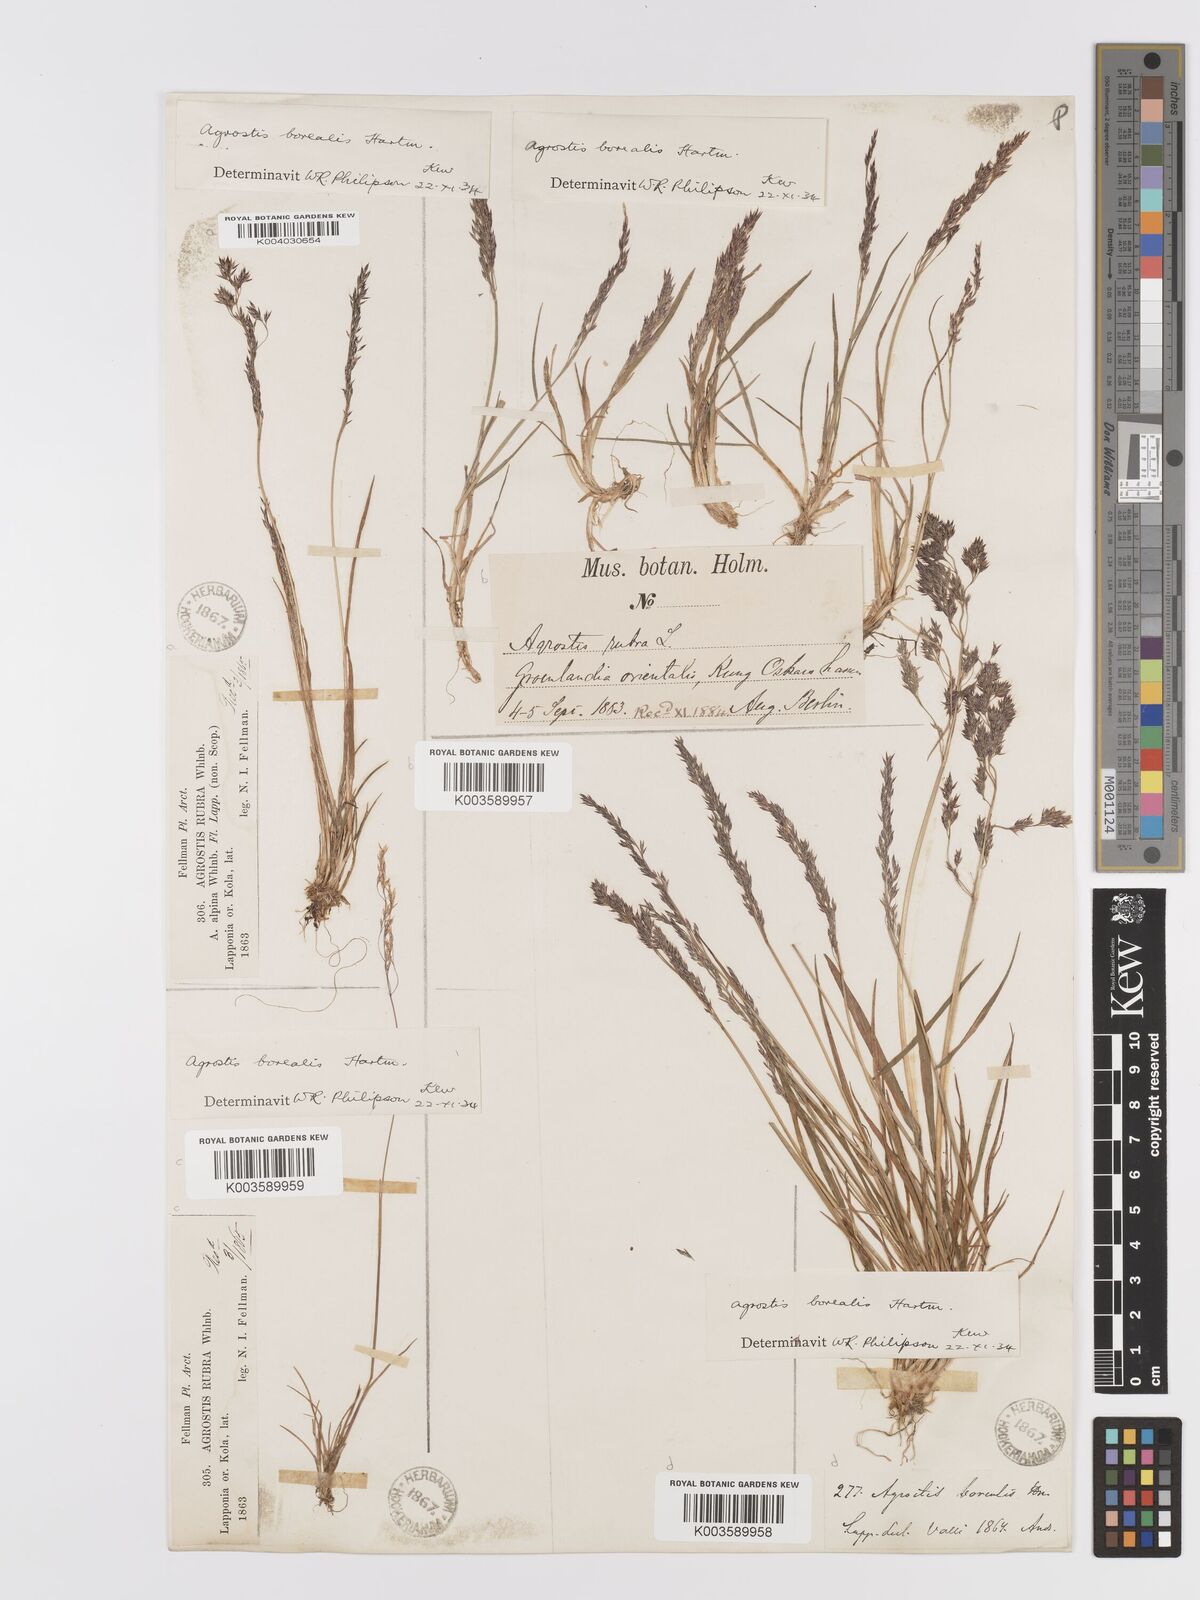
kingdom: Plantae
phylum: Tracheophyta
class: Liliopsida
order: Poales
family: Poaceae
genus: Agrostis
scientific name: Agrostis mertensii
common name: Northern bent
